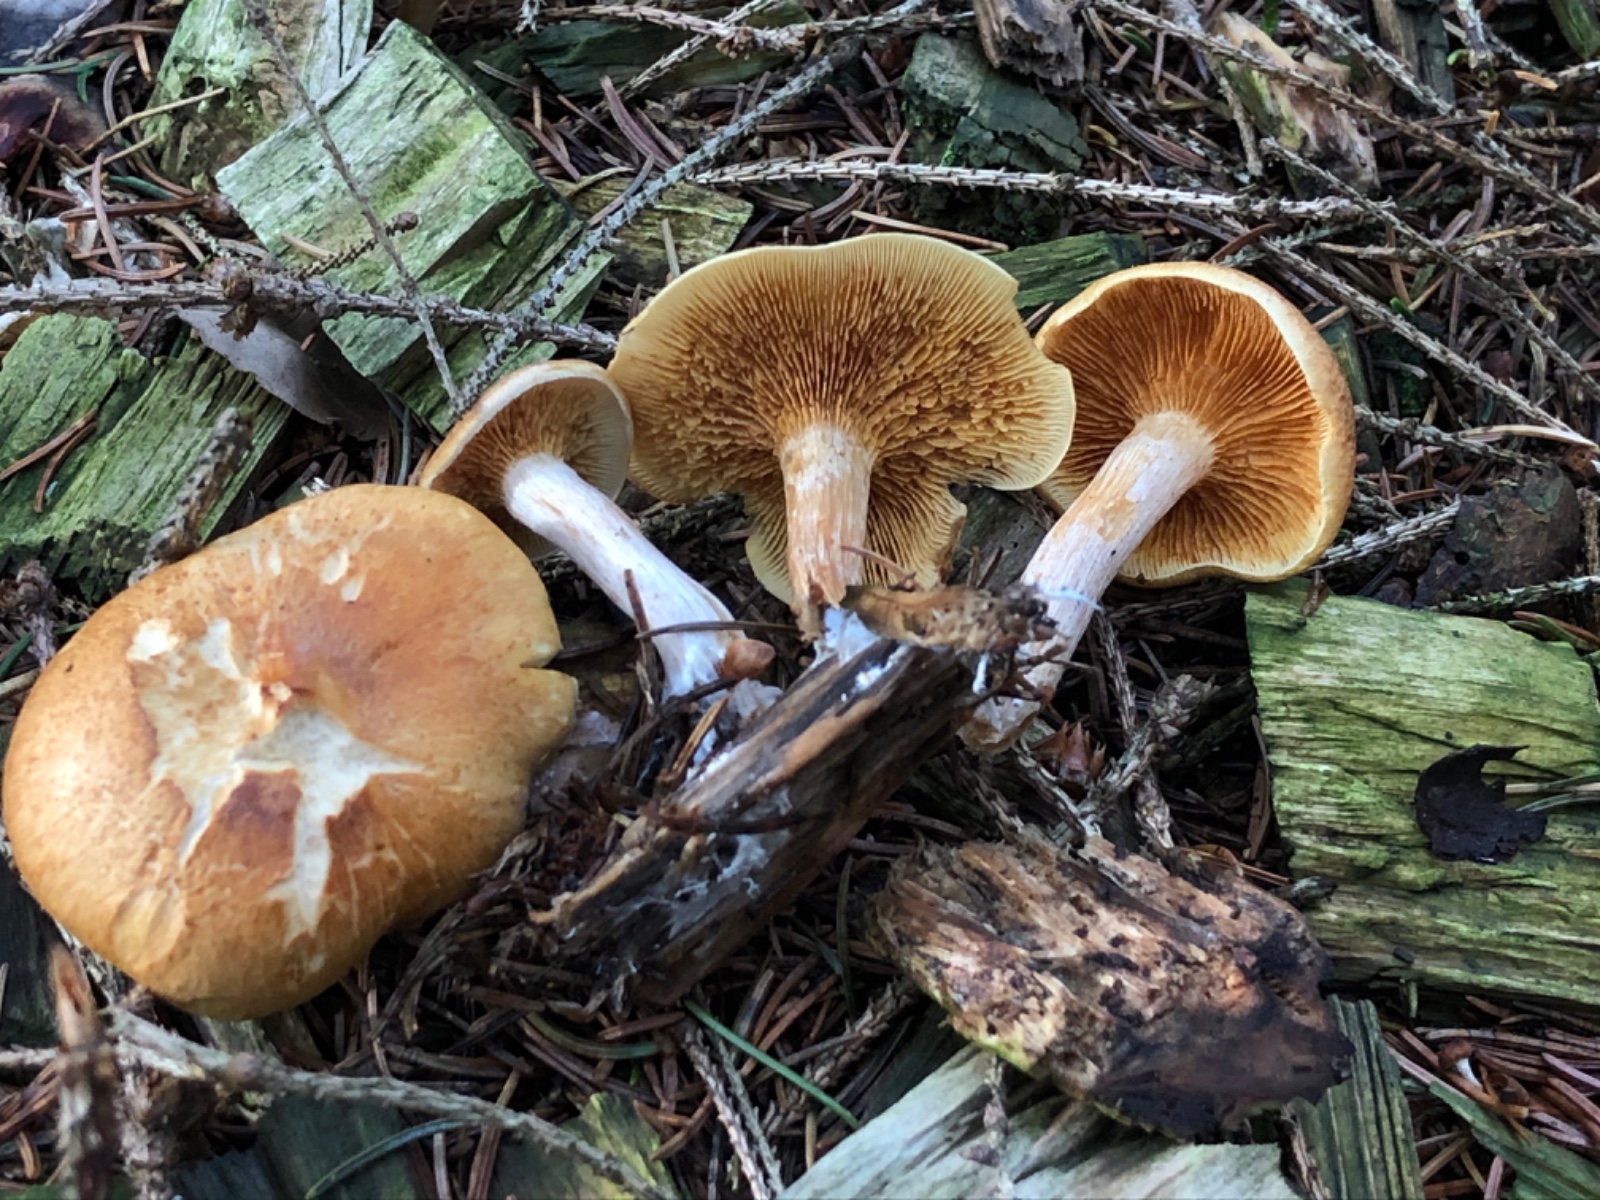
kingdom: Fungi
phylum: Basidiomycota
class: Agaricomycetes
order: Agaricales
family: Hymenogastraceae
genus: Gymnopilus
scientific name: Gymnopilus penetrans
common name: plettet flammehat
